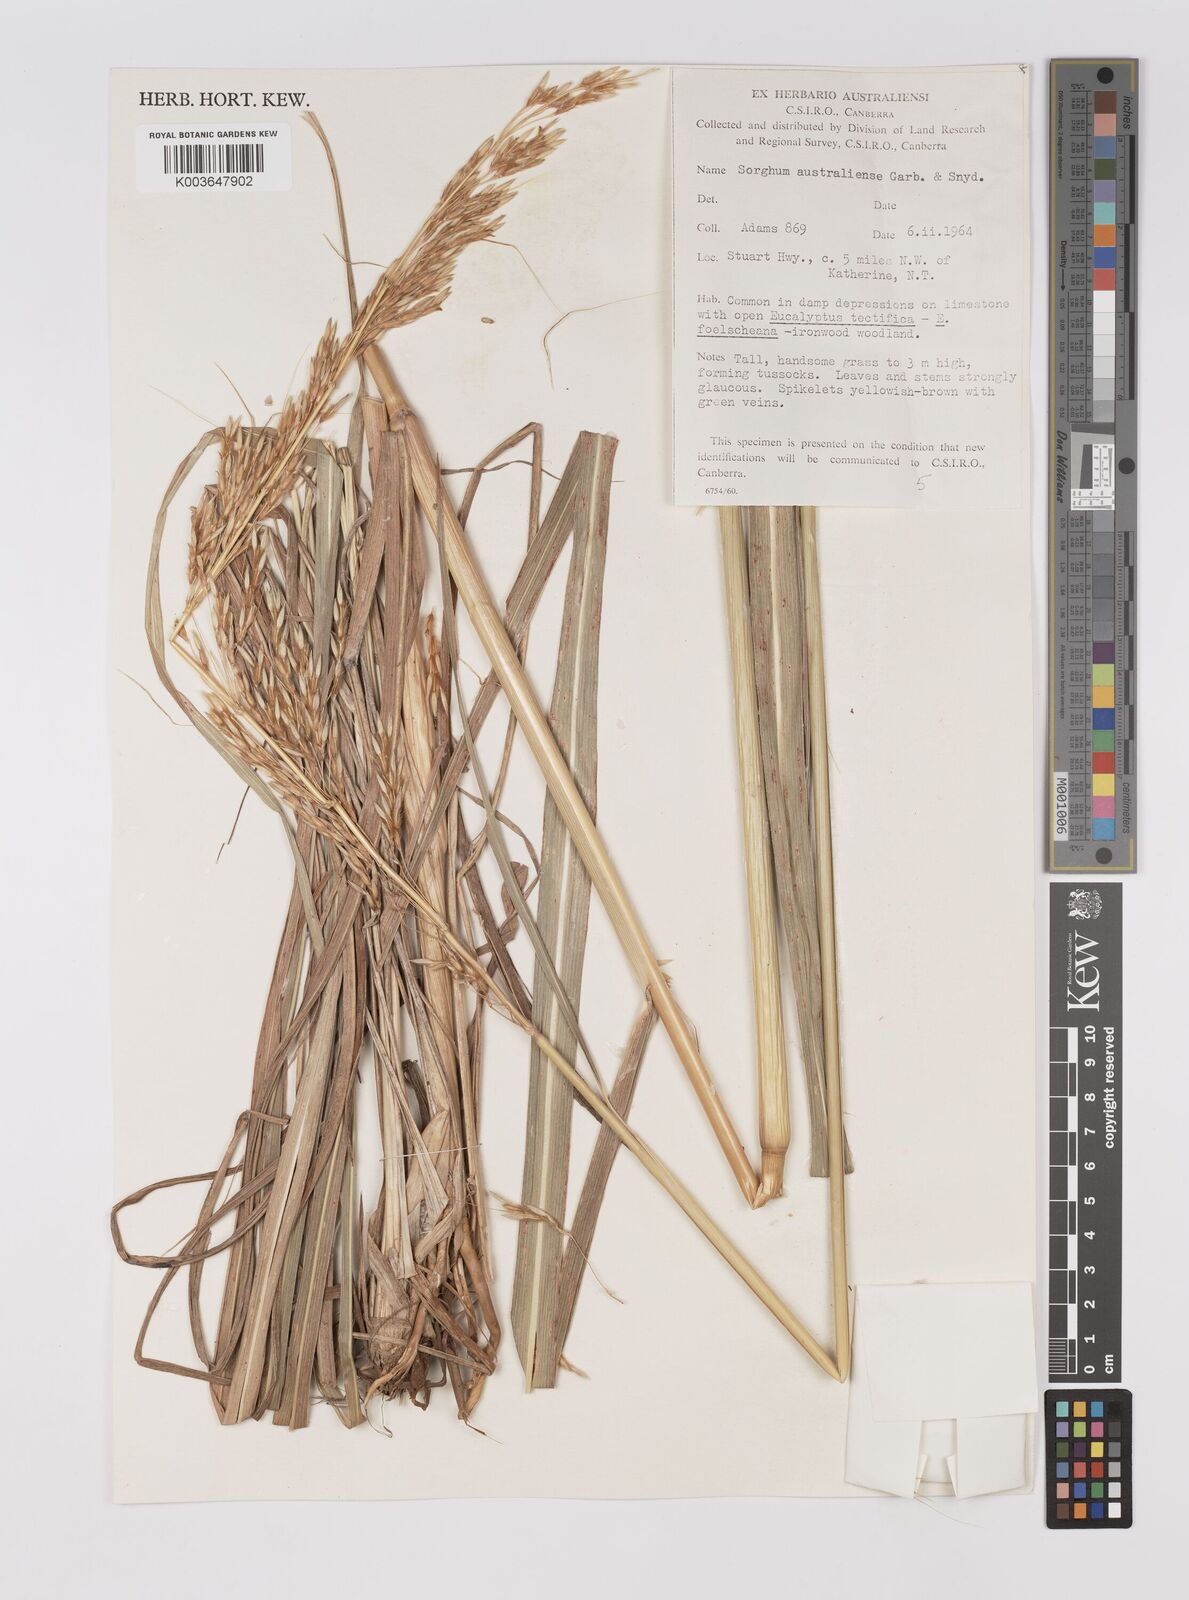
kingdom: Plantae
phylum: Tracheophyta
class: Liliopsida
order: Poales
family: Poaceae
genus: Sarga
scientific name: Sarga timorensis
